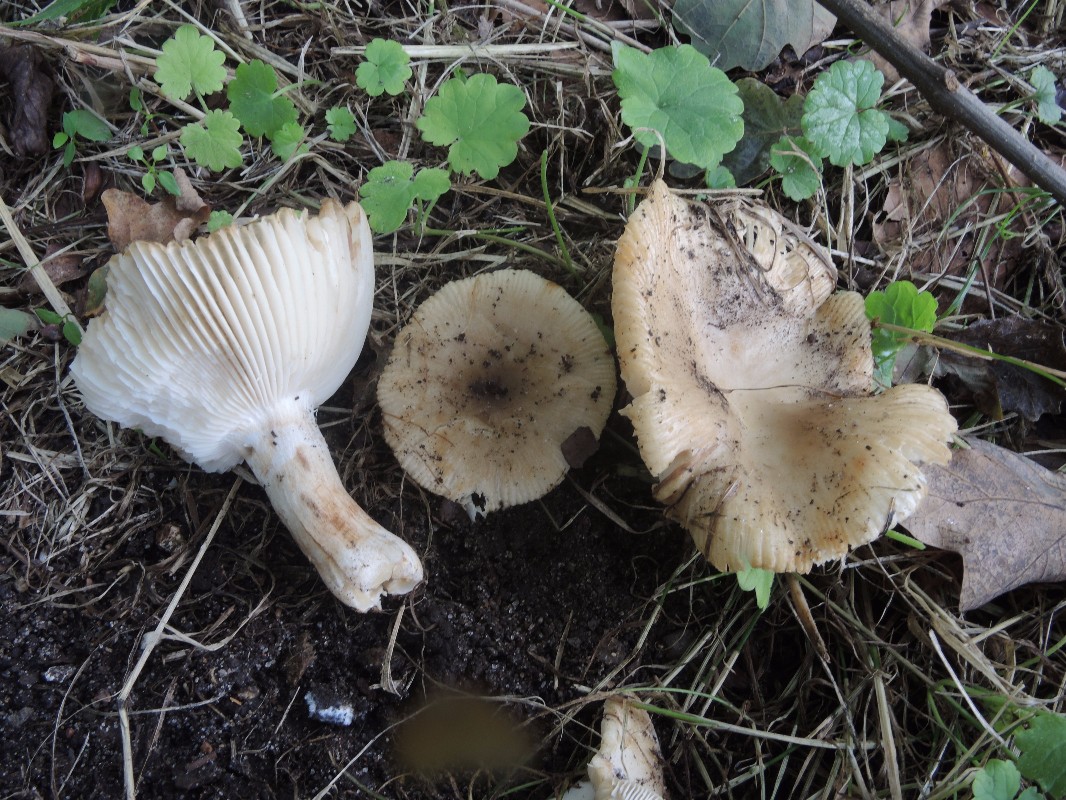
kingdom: Fungi
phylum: Basidiomycota
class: Agaricomycetes
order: Russulales
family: Russulaceae
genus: Russula
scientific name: Russula recondita
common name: mild kam-skørhat
